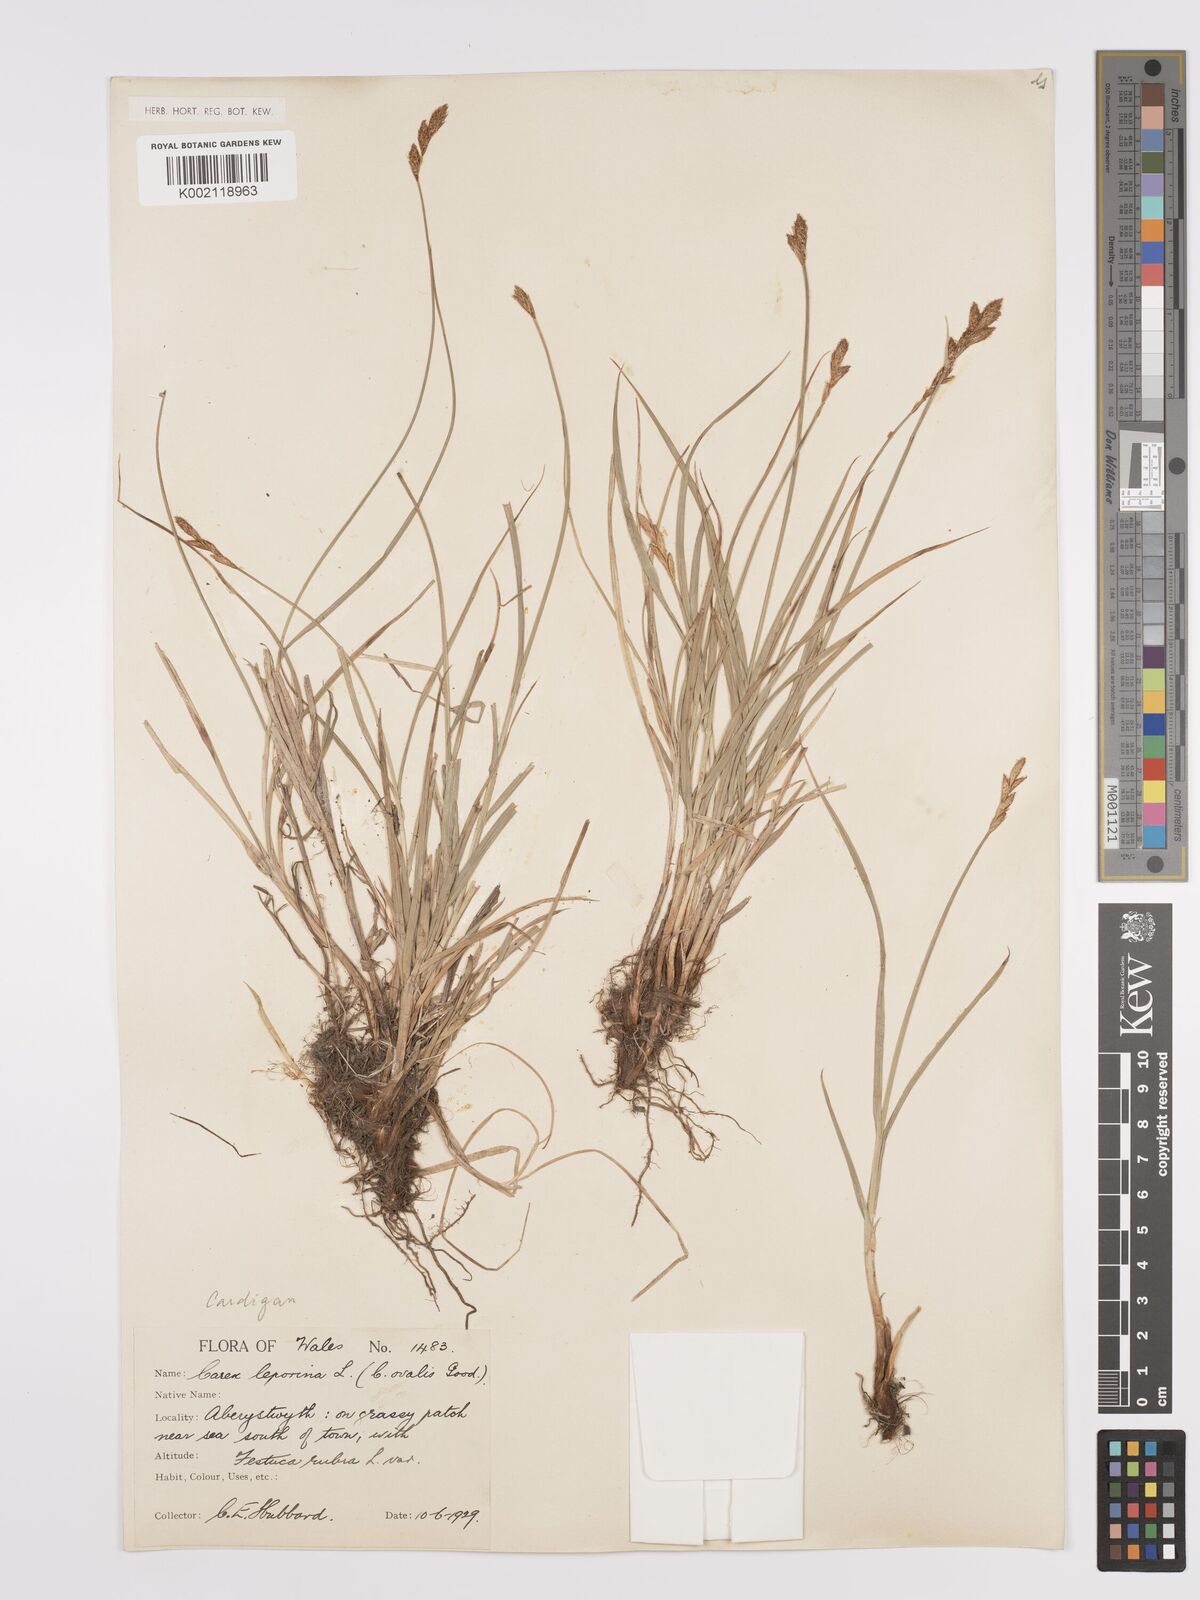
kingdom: Plantae
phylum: Tracheophyta
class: Liliopsida
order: Poales
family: Cyperaceae
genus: Carex
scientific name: Carex leporina
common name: Oval sedge
